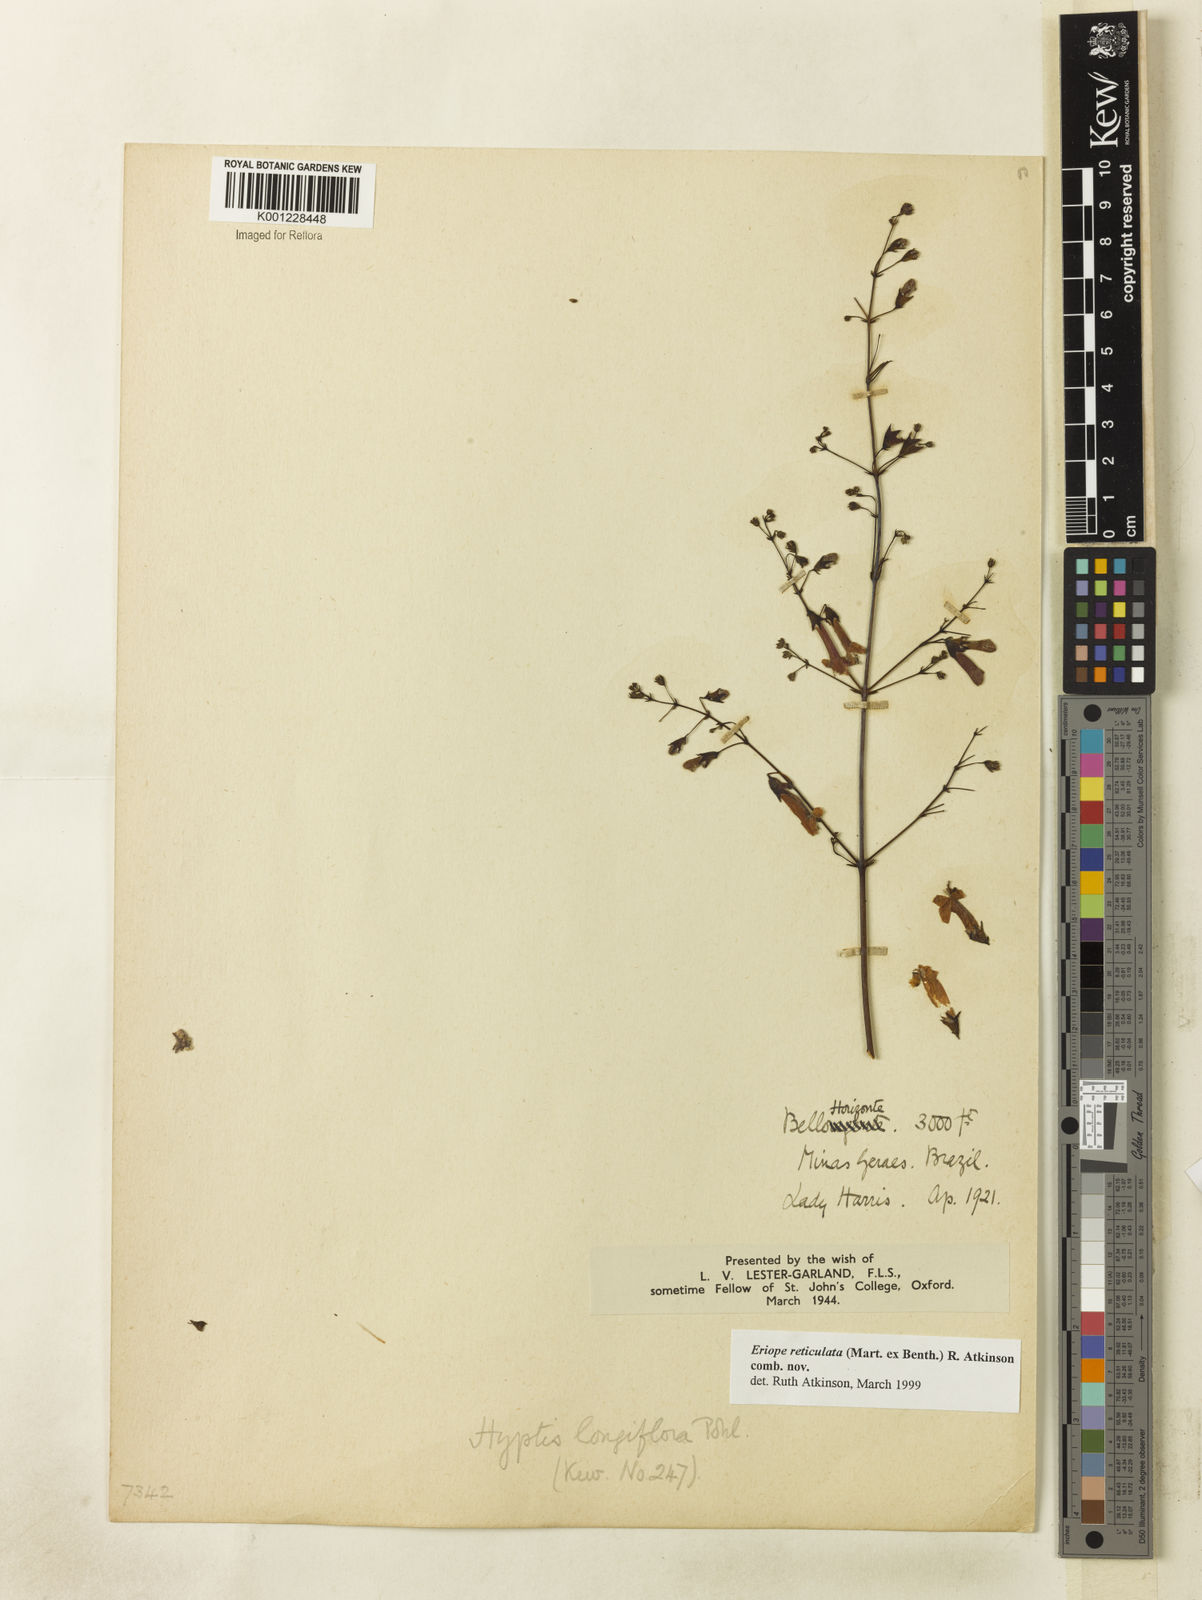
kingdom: Plantae
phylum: Tracheophyta
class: Magnoliopsida
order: Lamiales
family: Lamiaceae
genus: Hypenia
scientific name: Hypenia reticulata
